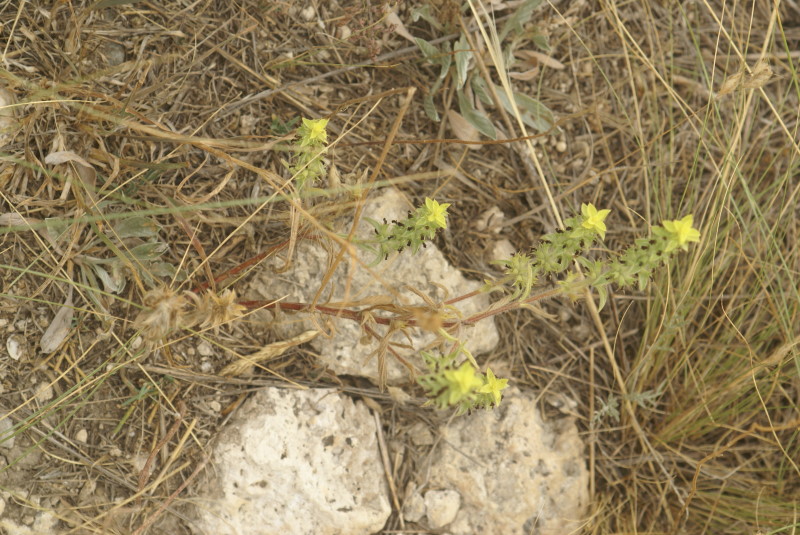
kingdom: Plantae
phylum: Tracheophyta
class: Magnoliopsida
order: Lamiales
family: Lamiaceae
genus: Sideritis
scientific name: Sideritis montana
